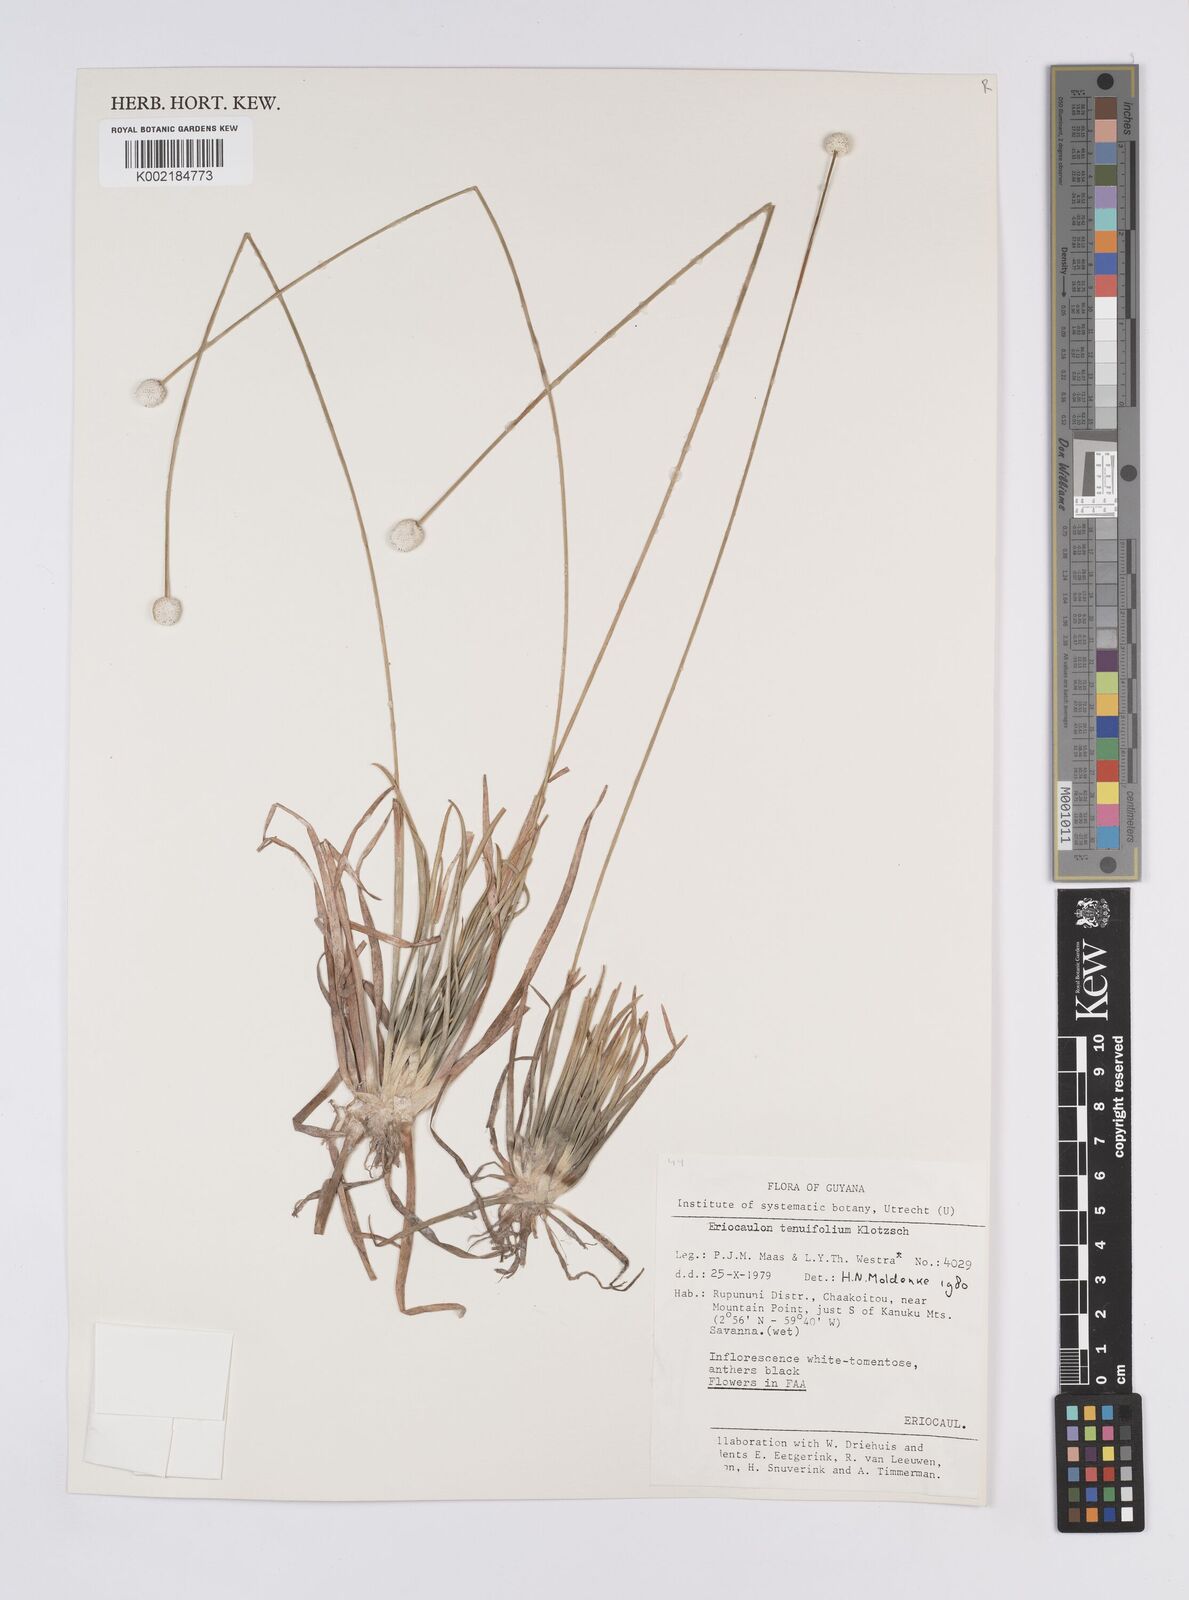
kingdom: Plantae
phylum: Tracheophyta
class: Liliopsida
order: Poales
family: Eriocaulaceae
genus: Eriocaulon
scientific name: Eriocaulon tenuifolium
